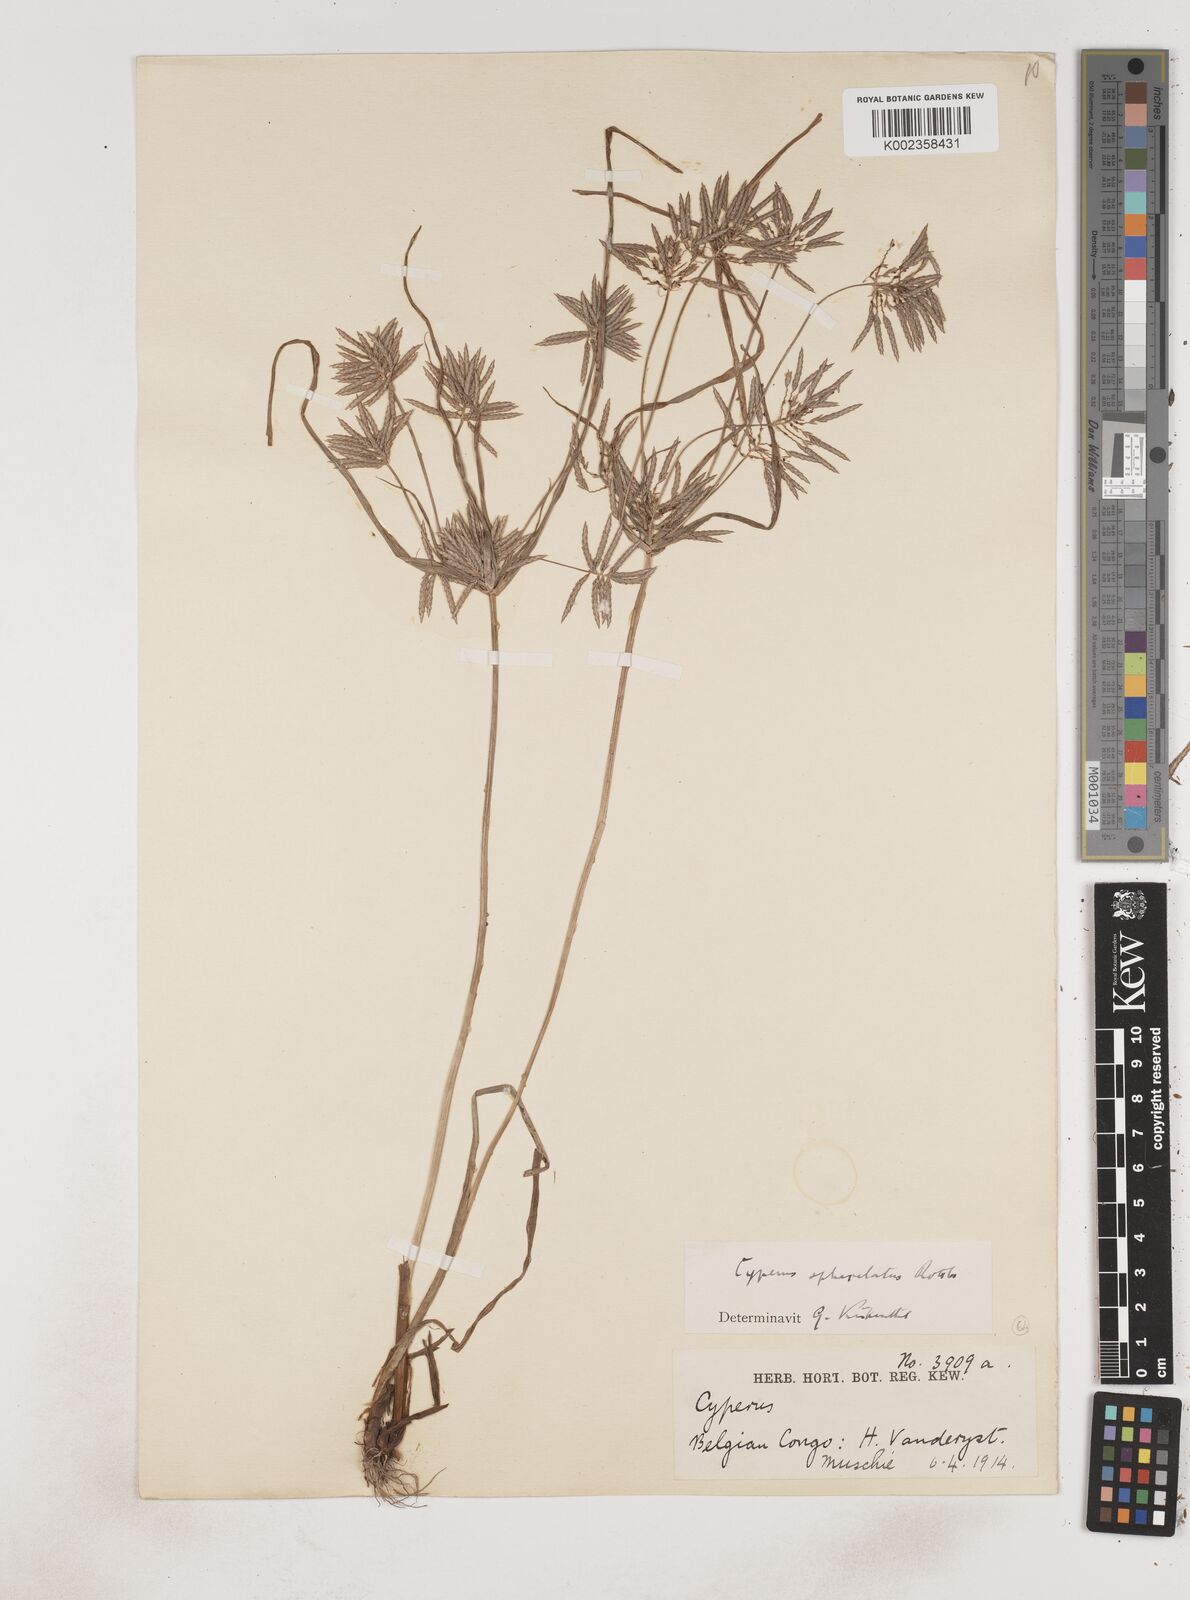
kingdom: Plantae
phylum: Tracheophyta
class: Liliopsida
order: Poales
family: Cyperaceae
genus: Cyperus
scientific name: Cyperus sphacelatus
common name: Roadside flatsedge
